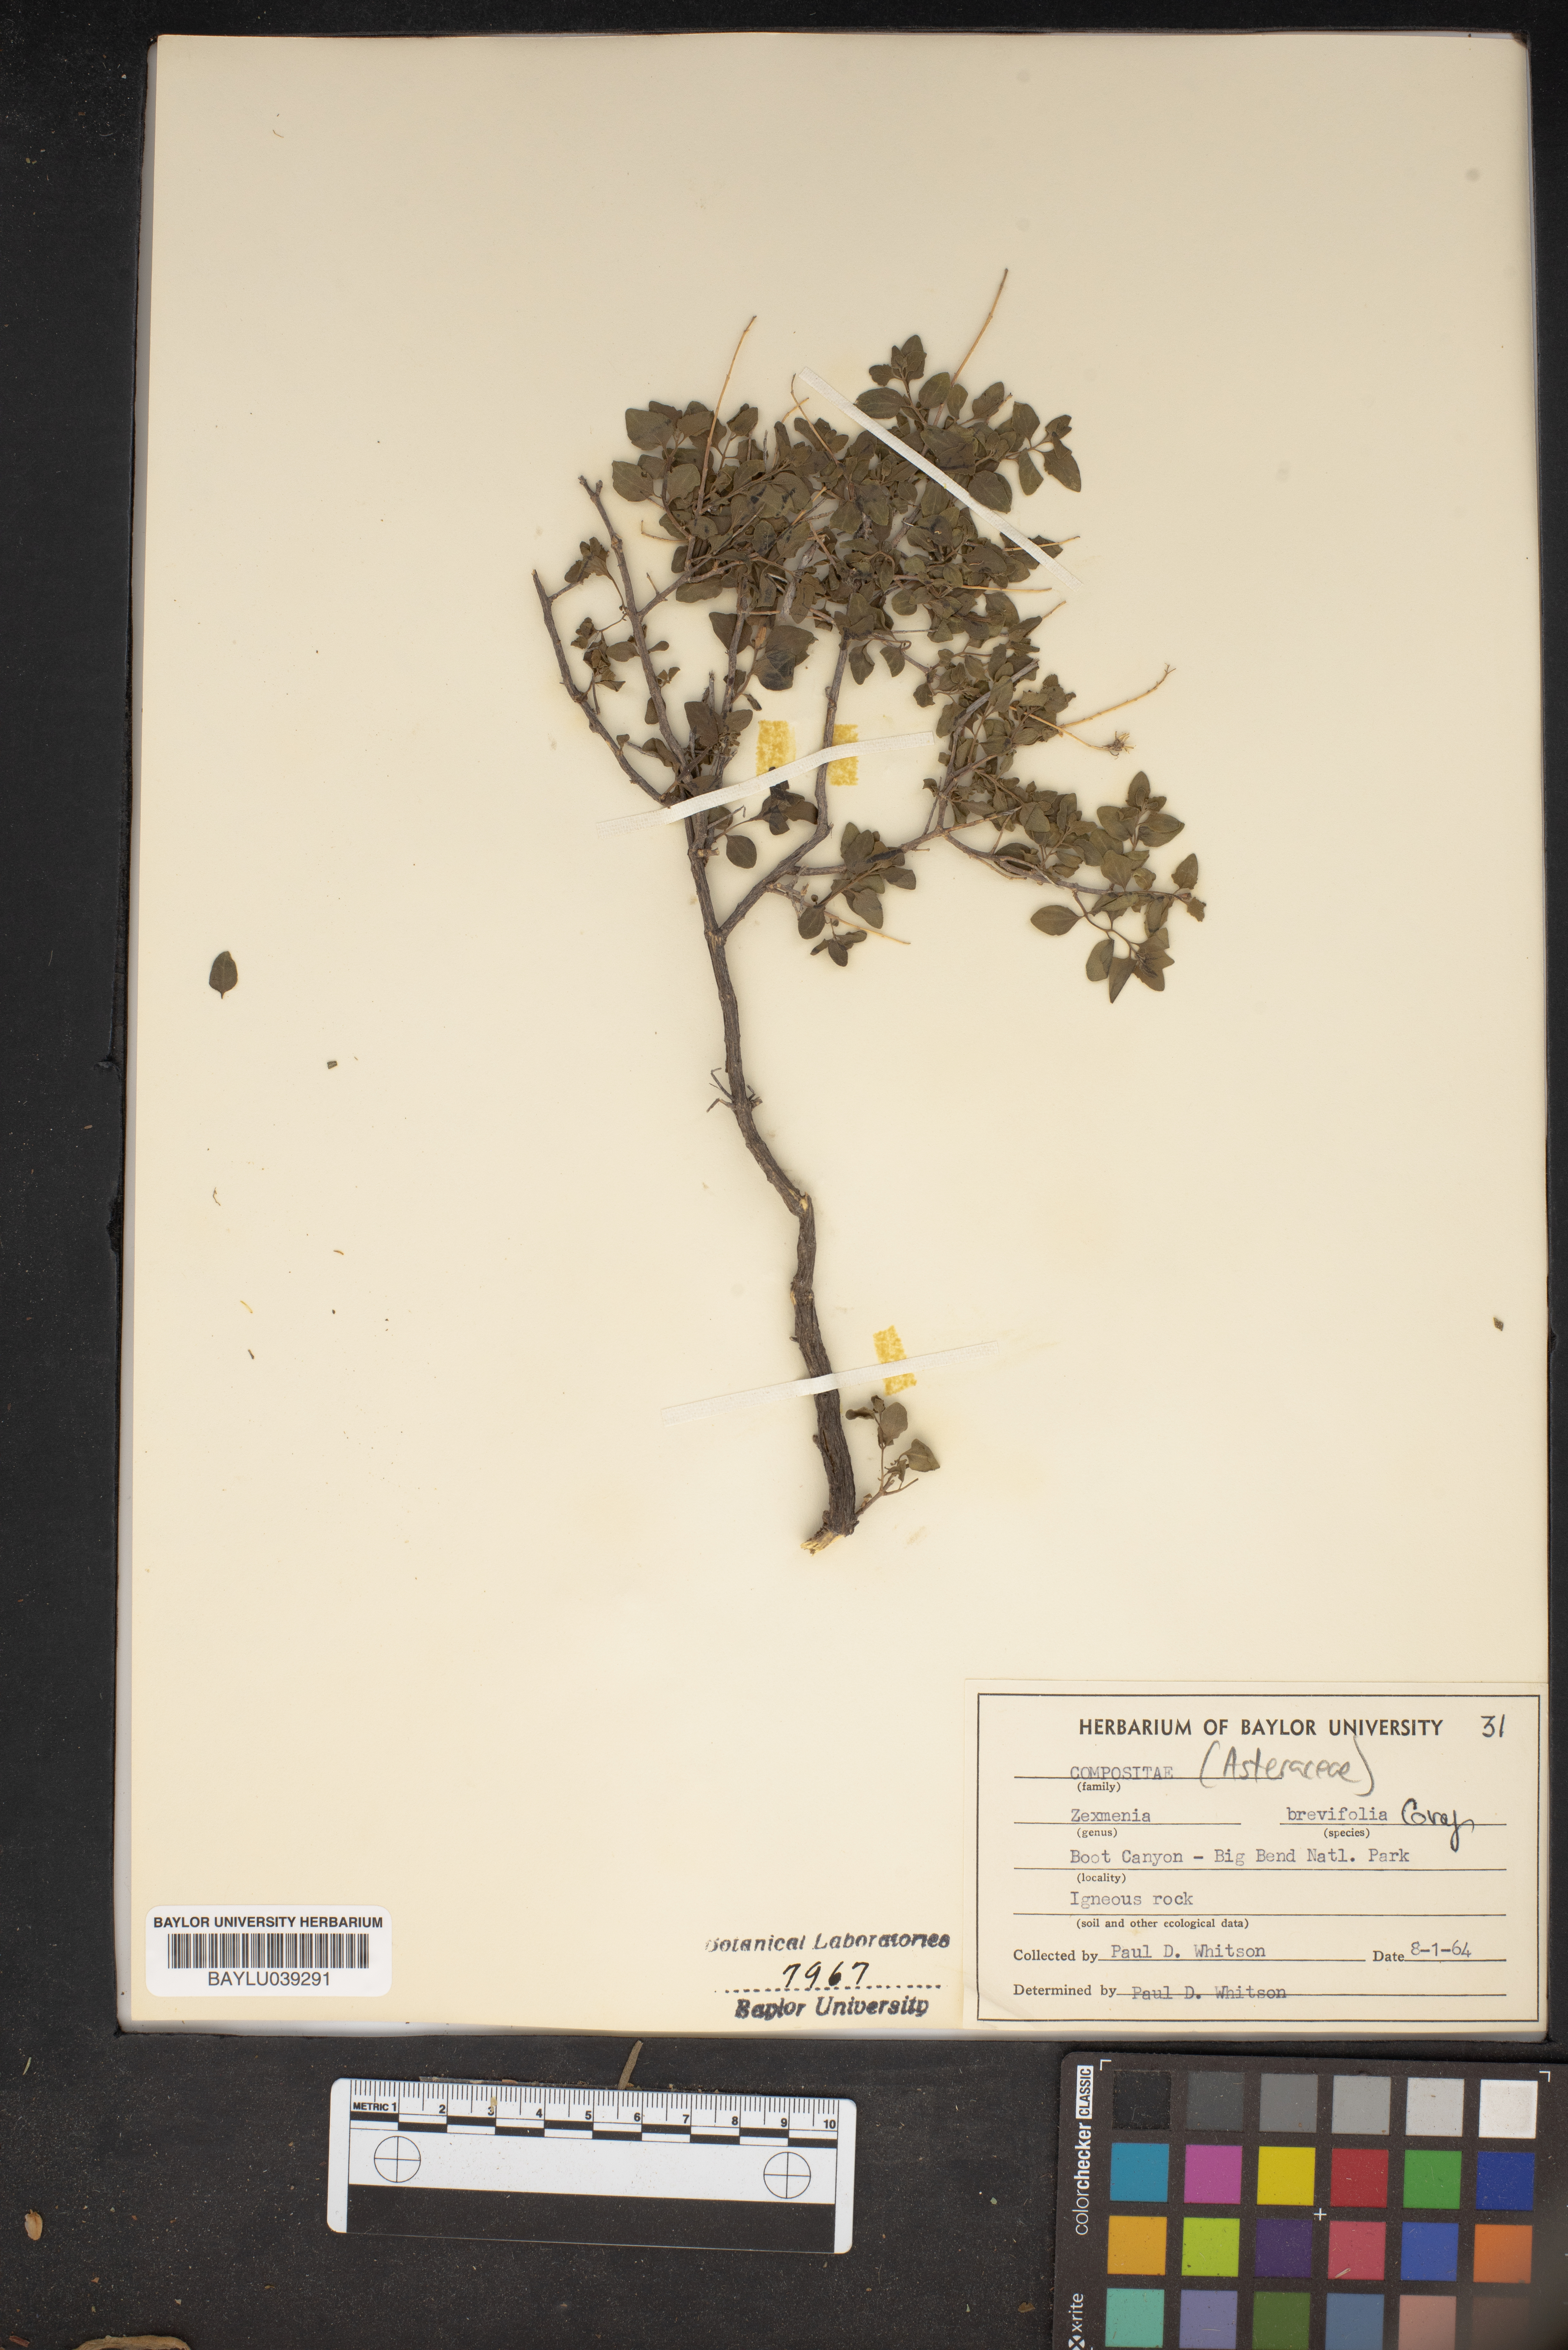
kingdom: Plantae
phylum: Tracheophyta
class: Magnoliopsida
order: Asterales
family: Asteraceae
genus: Jefea
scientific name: Jefea brevifolia
